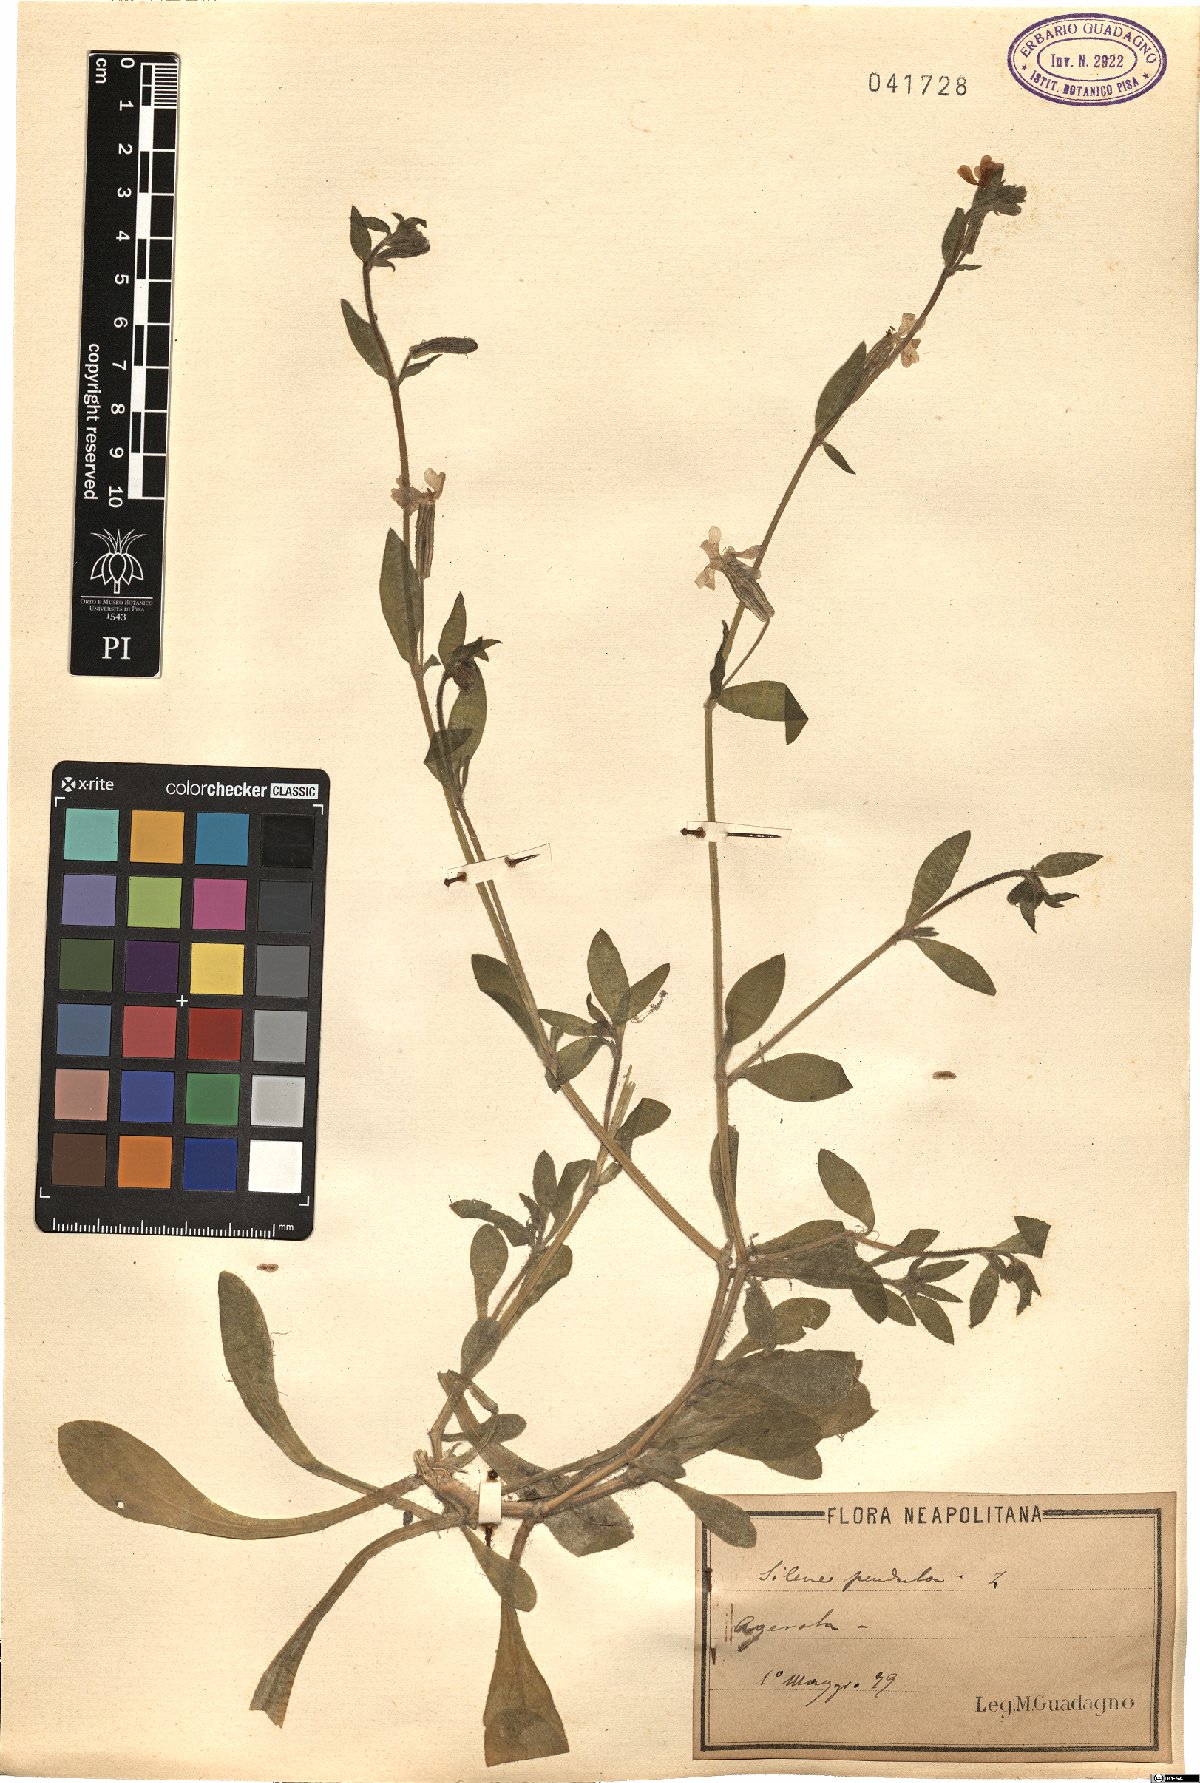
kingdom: Plantae
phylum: Tracheophyta
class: Magnoliopsida
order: Caryophyllales
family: Caryophyllaceae
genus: Silene
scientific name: Silene pendula
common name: Nodding catchfly
